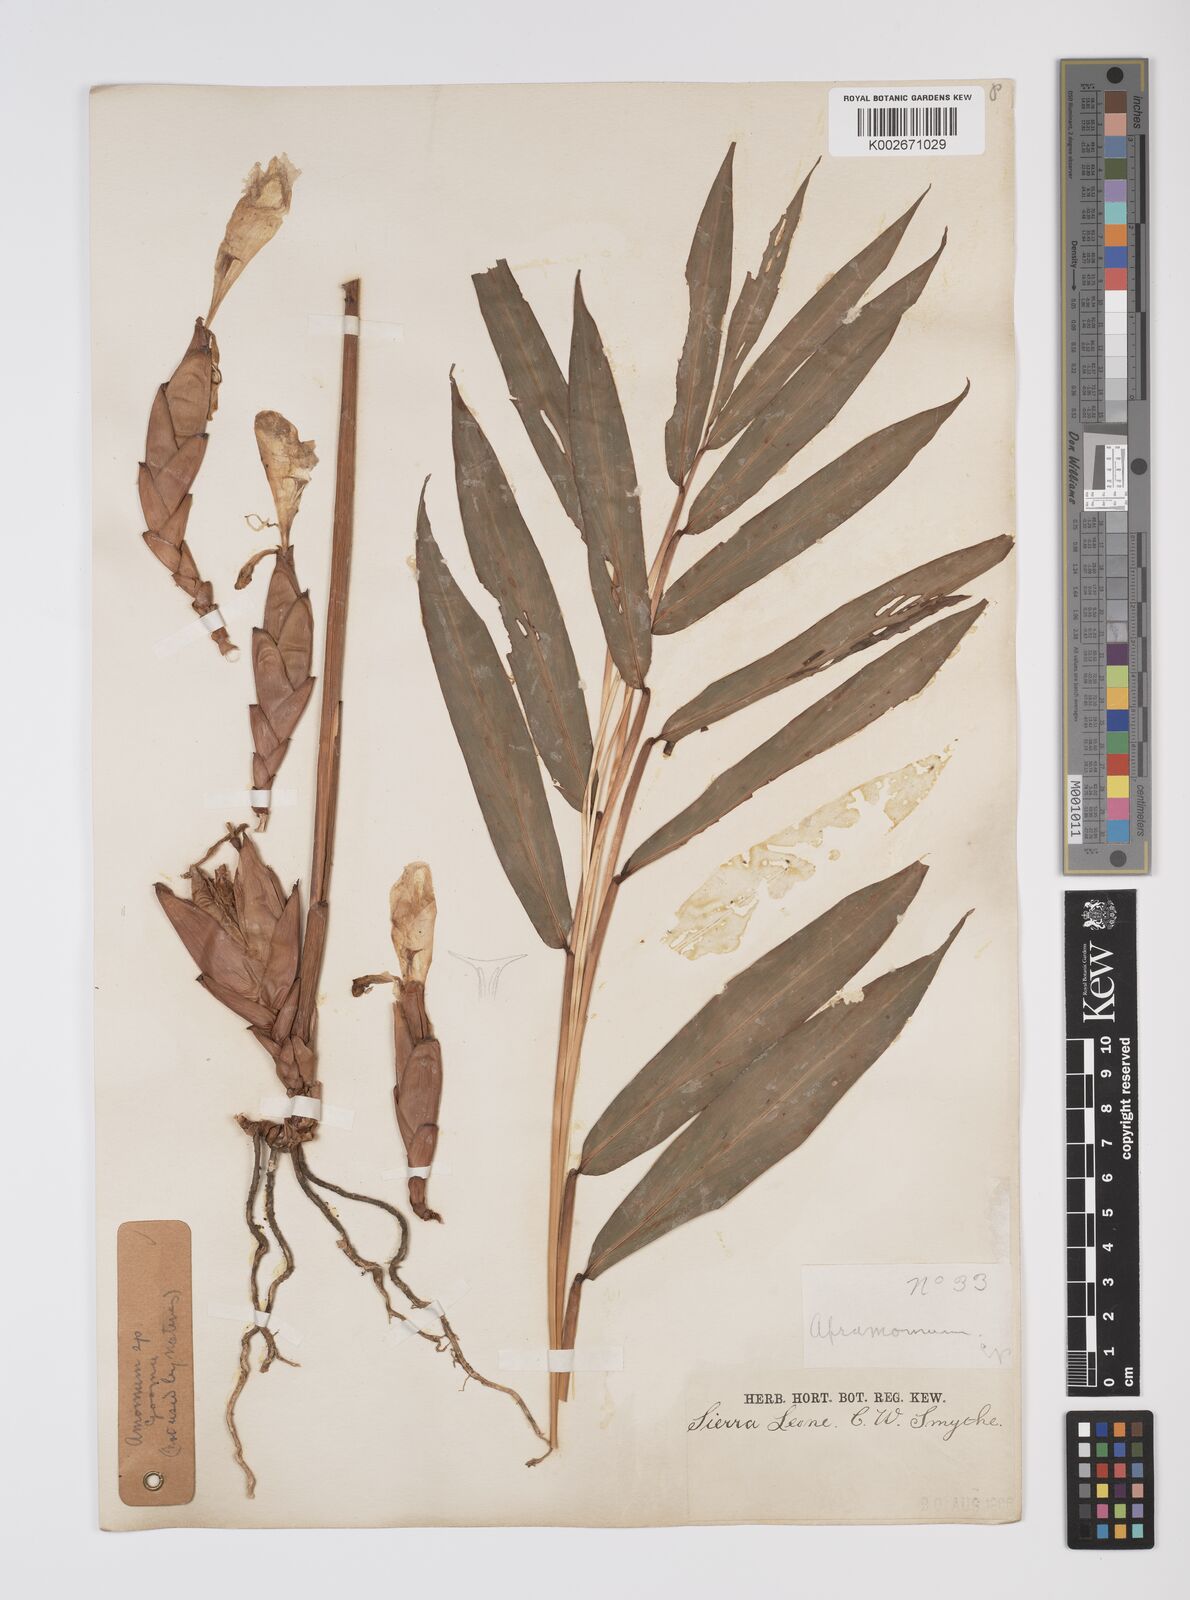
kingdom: Plantae
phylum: Tracheophyta
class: Liliopsida
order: Zingiberales
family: Zingiberaceae
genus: Aframomum
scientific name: Aframomum
